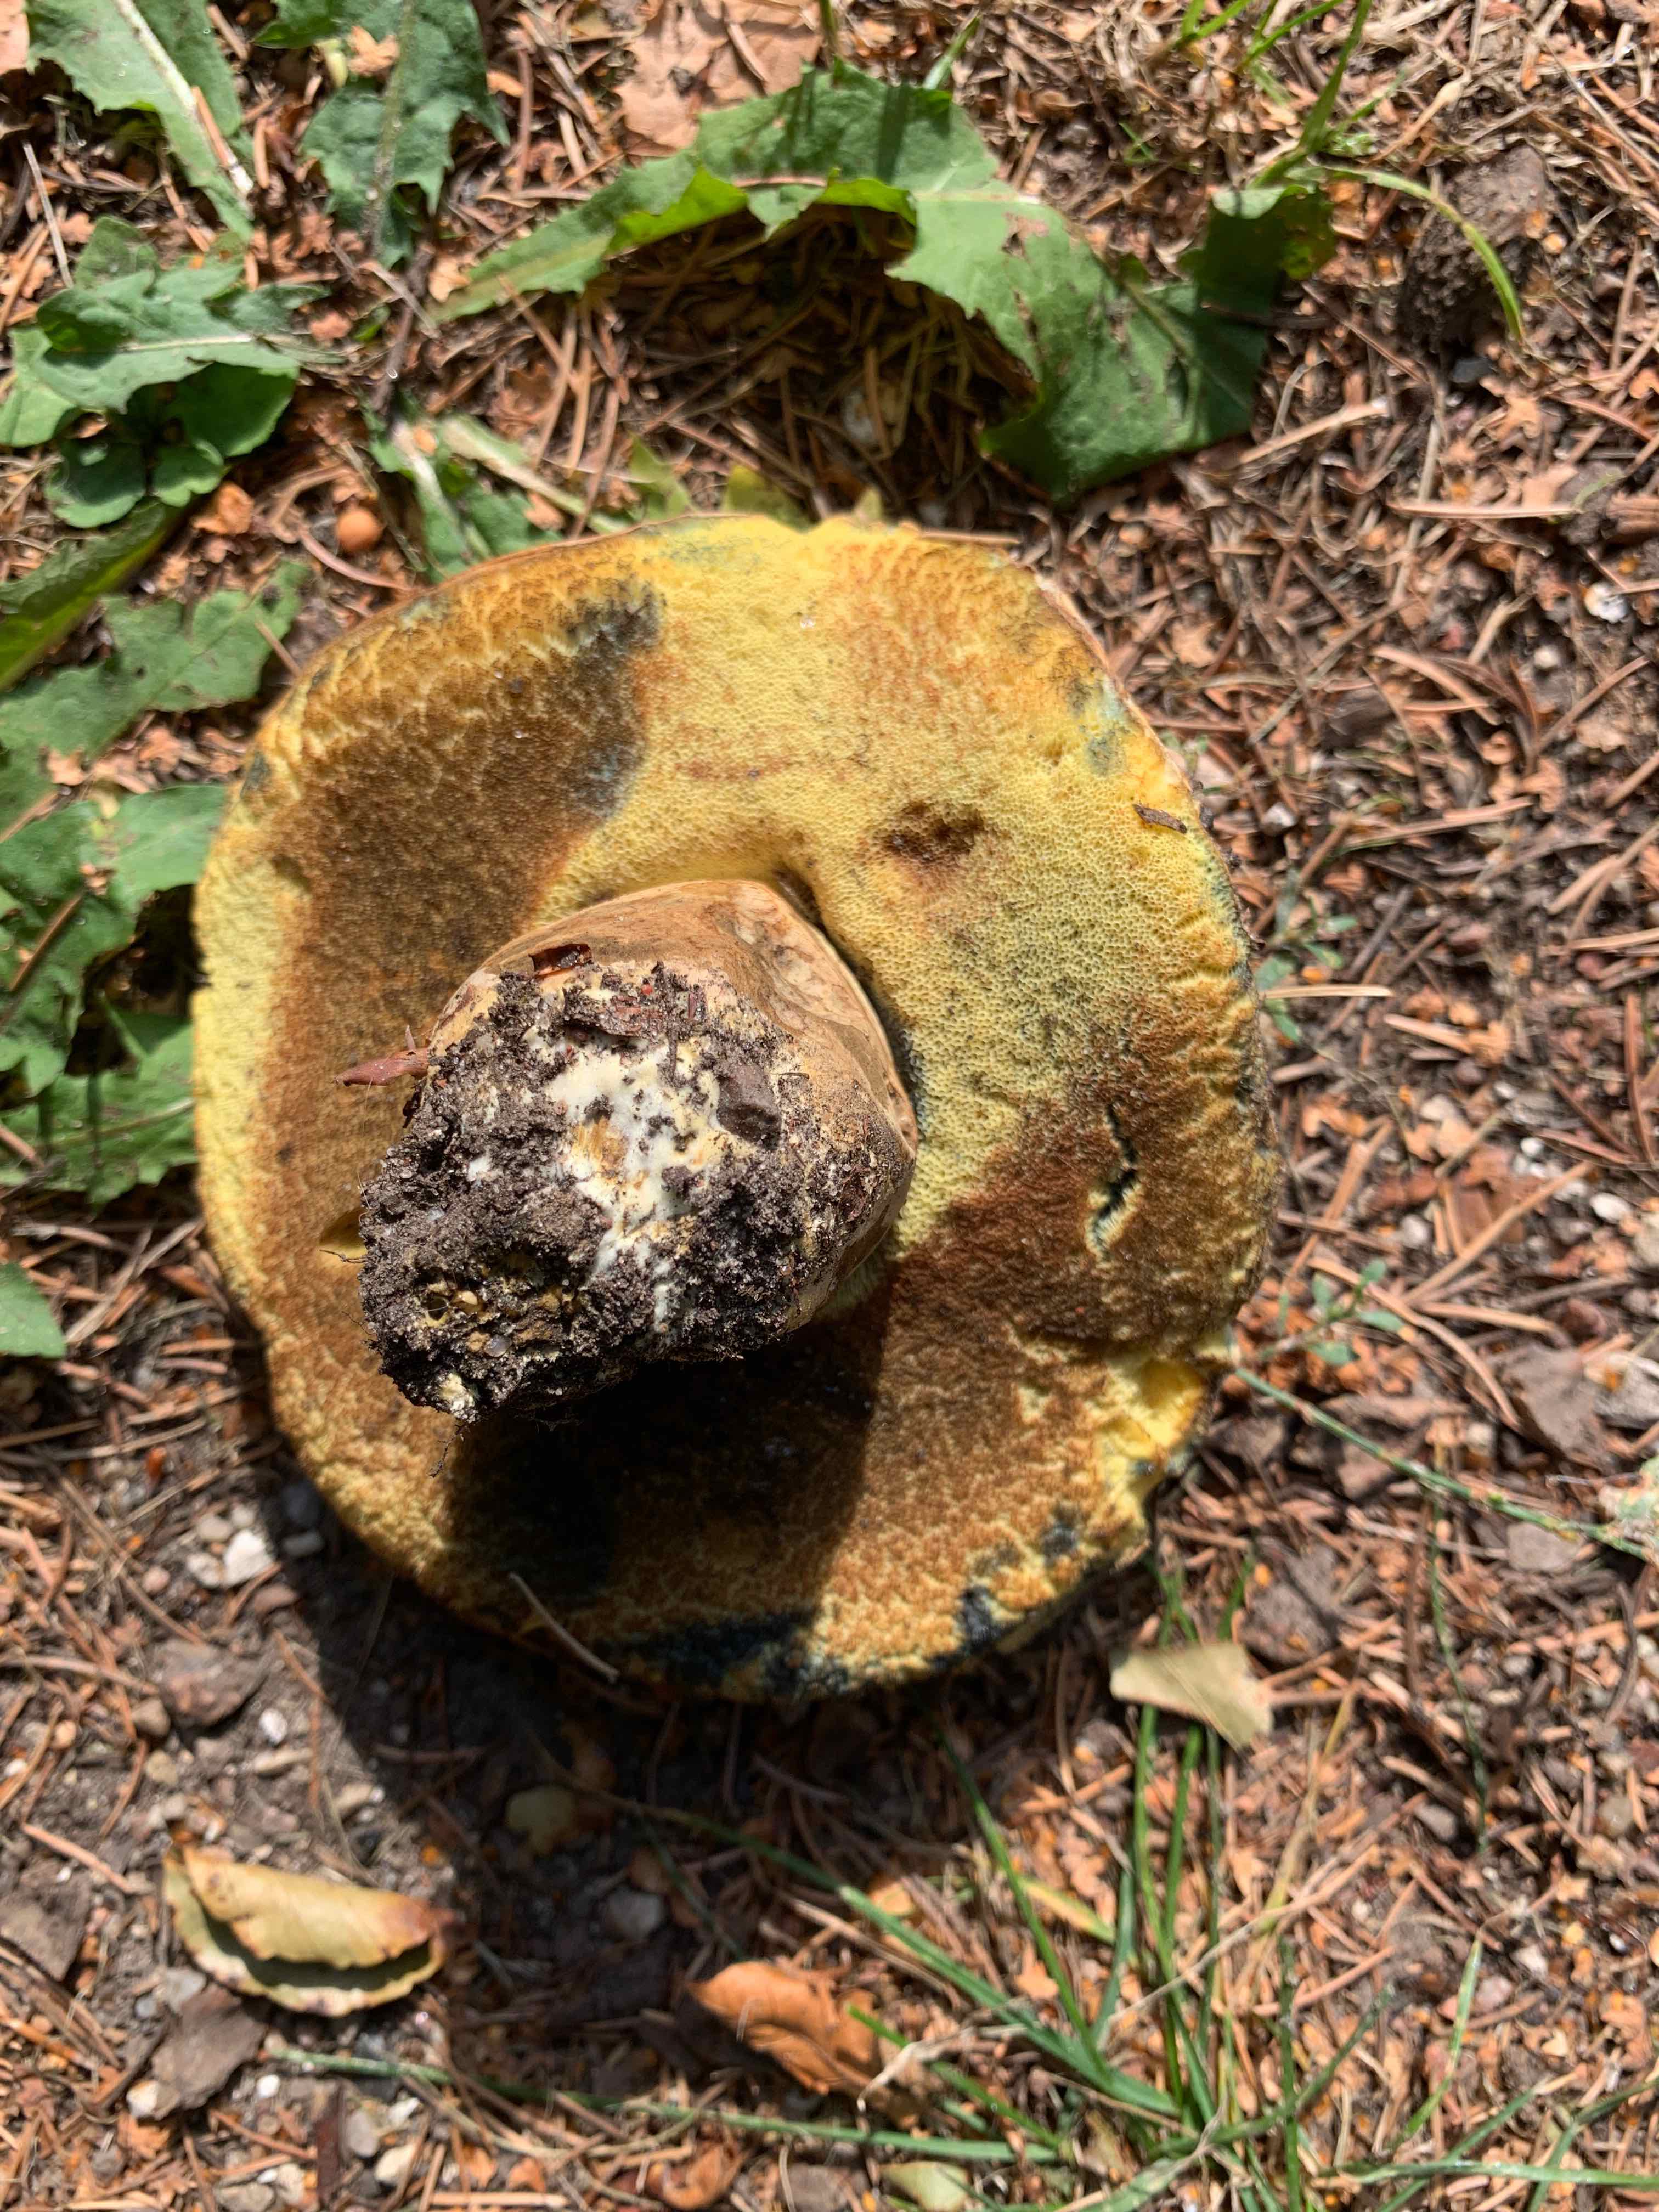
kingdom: Fungi
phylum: Basidiomycota
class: Agaricomycetes
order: Boletales
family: Boletaceae
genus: Caloboletus
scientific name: Caloboletus radicans
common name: rod-rørhat
